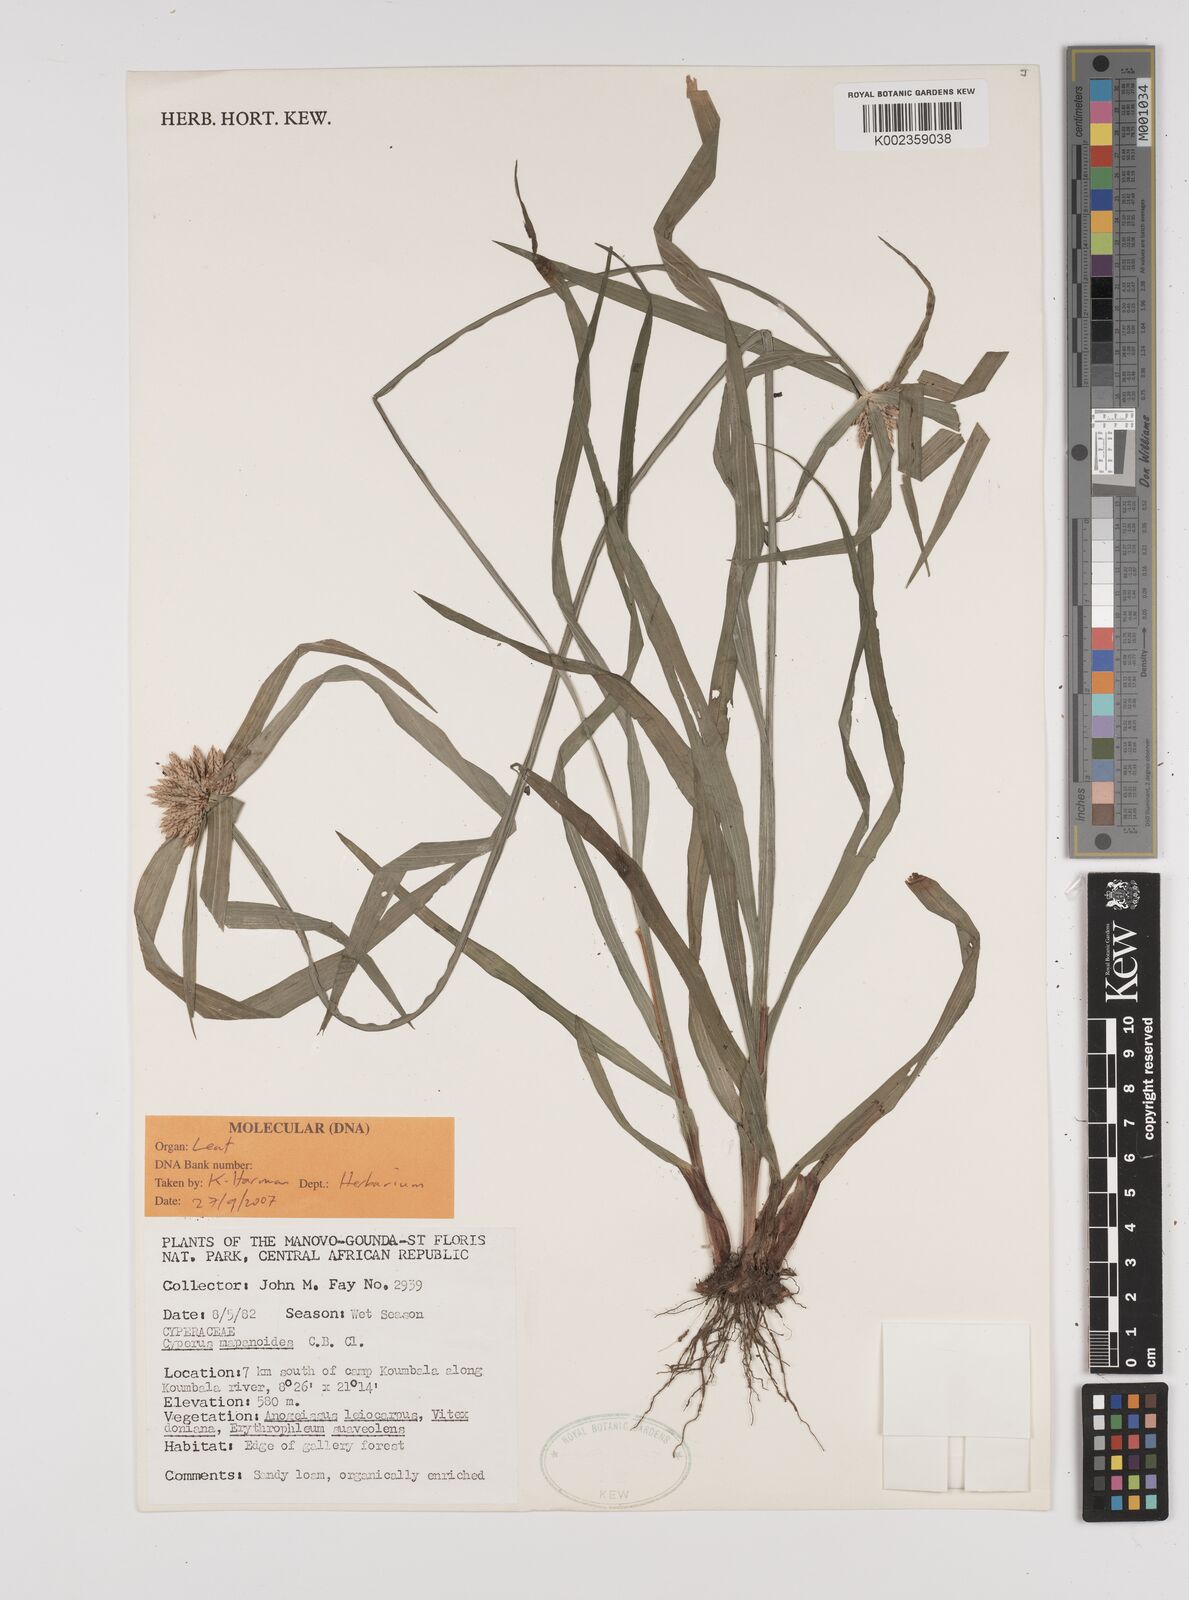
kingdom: Plantae
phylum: Tracheophyta
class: Liliopsida
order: Poales
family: Cyperaceae
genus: Cyperus
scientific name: Cyperus mapanioides
